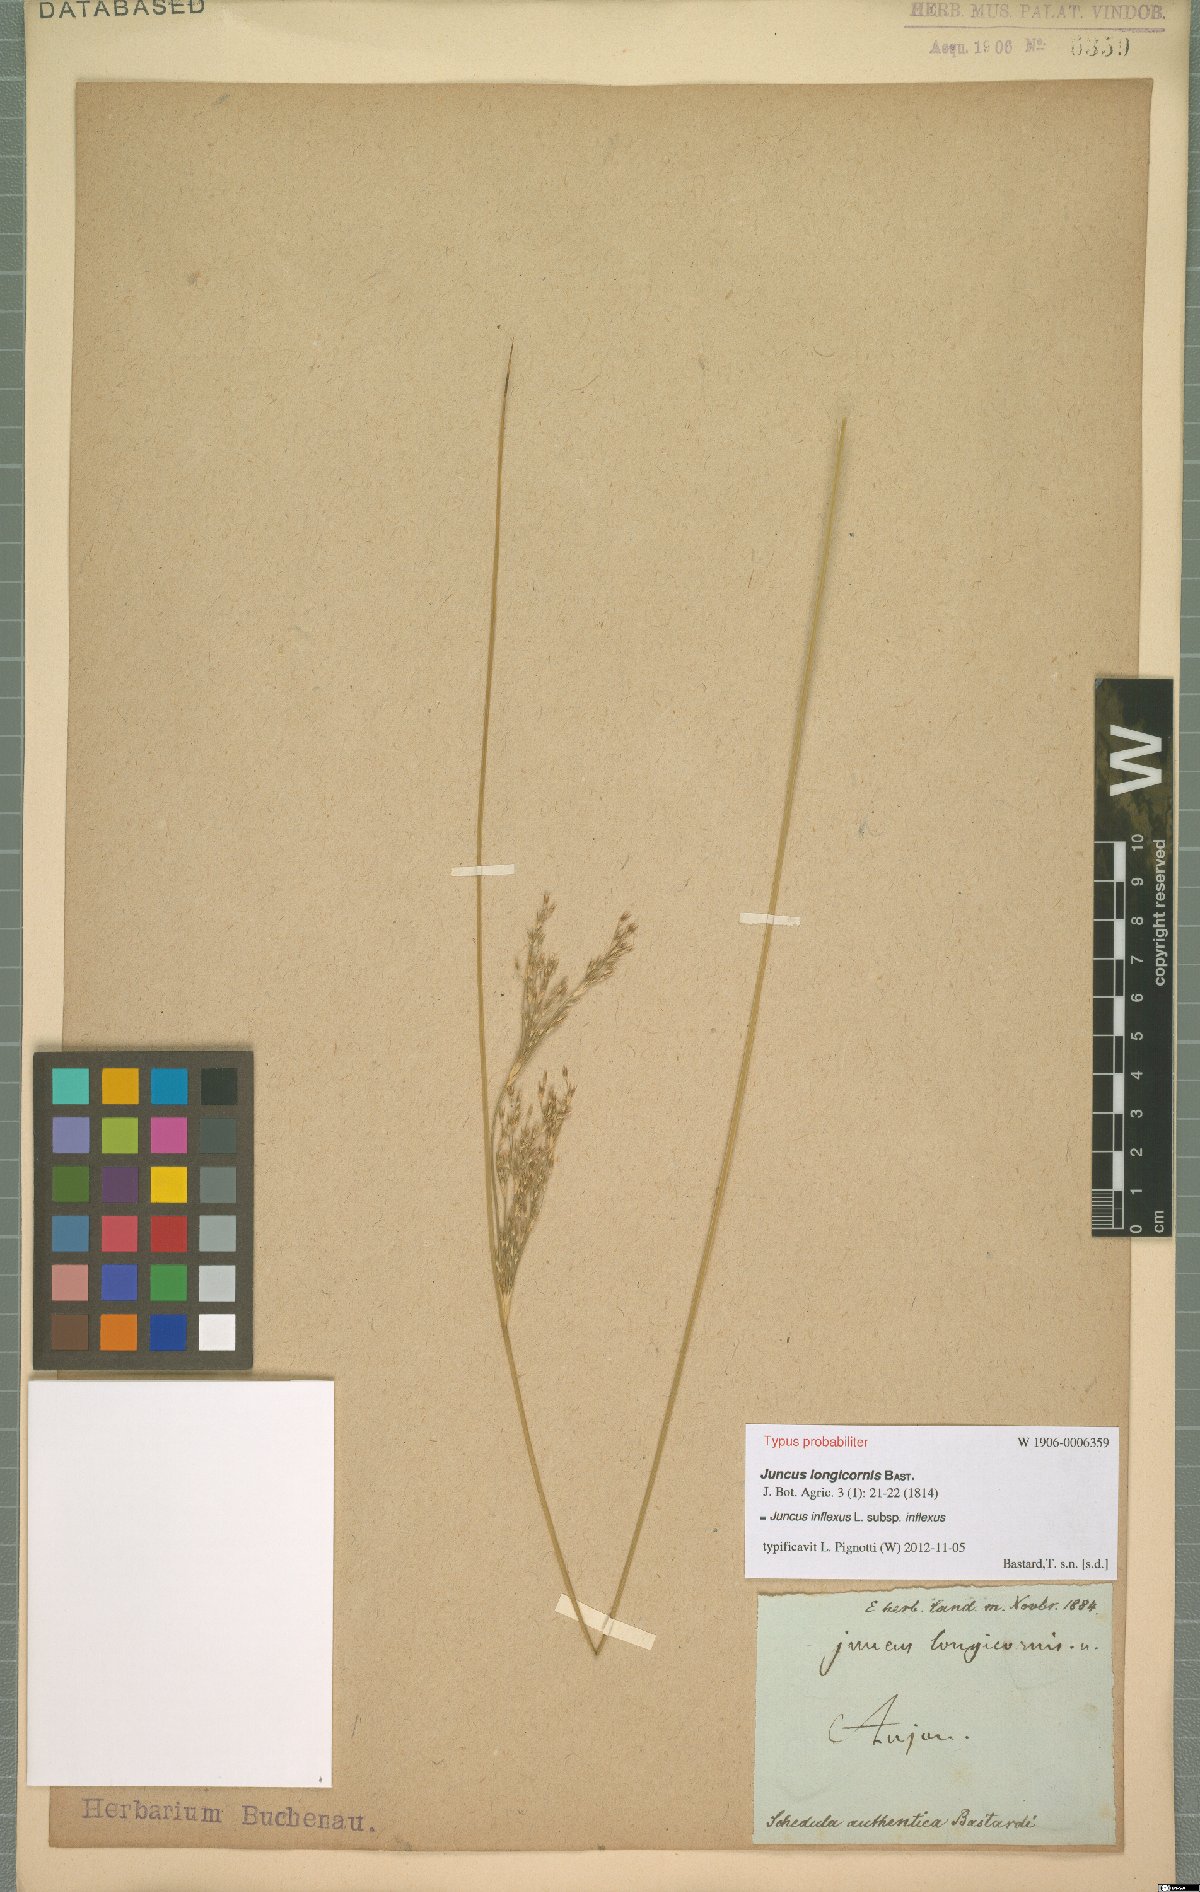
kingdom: Plantae
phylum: Tracheophyta
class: Liliopsida
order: Poales
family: Juncaceae
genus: Juncus
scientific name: Juncus inflexus
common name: Hard rush
